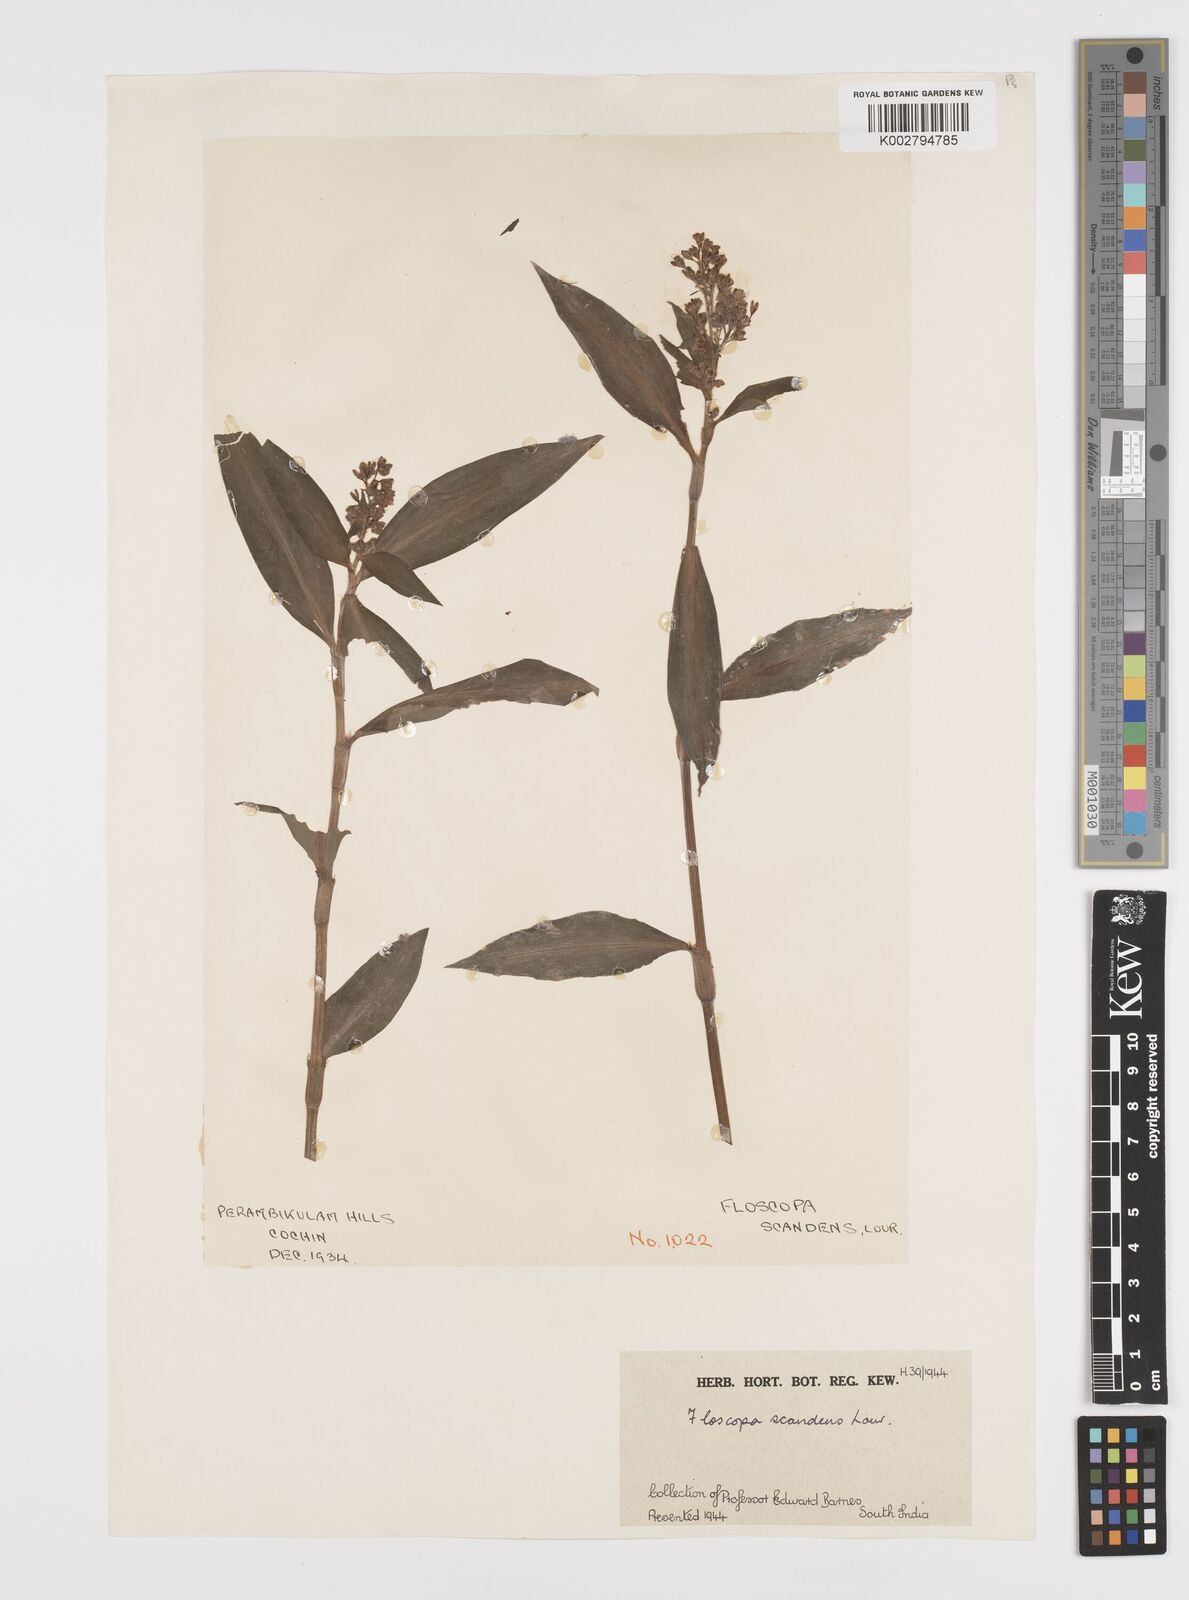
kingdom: Plantae
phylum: Tracheophyta
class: Liliopsida
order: Commelinales
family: Commelinaceae
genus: Floscopa
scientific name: Floscopa scandens
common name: Climbing flower cup
